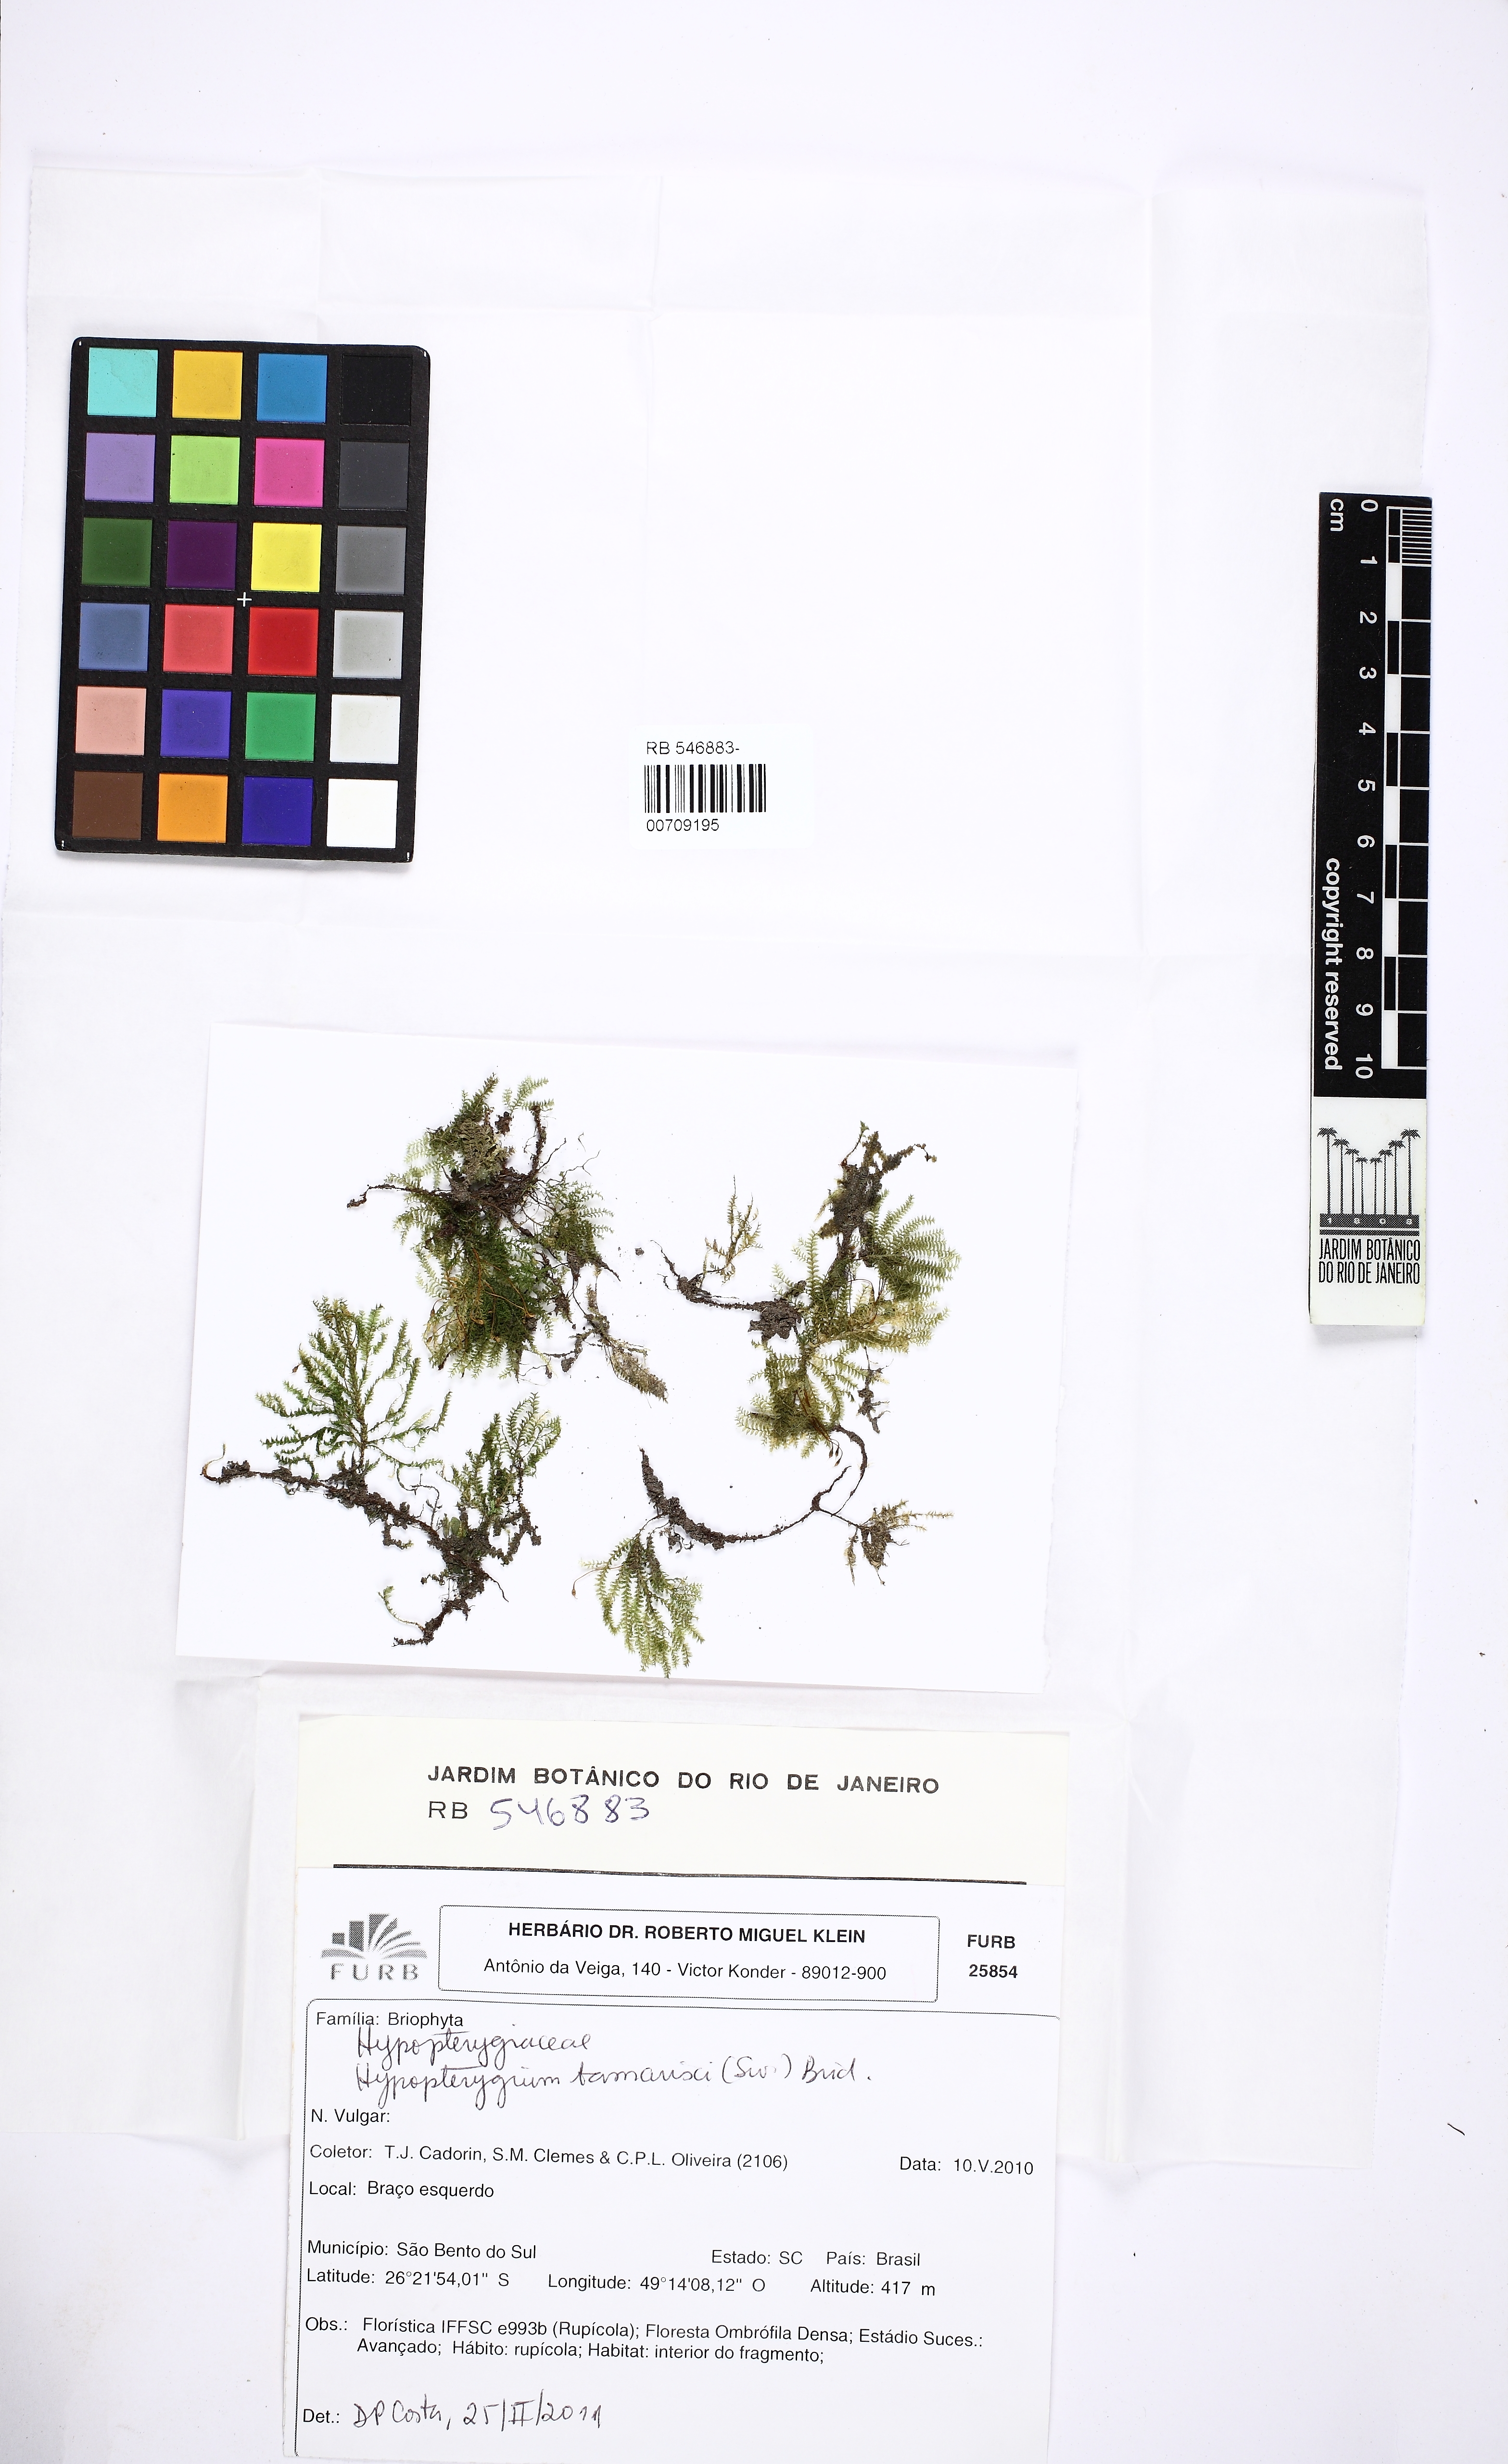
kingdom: Plantae
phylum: Bryophyta
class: Bryopsida
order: Hypopterygiales
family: Hypopterygiaceae
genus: Hypopterygium
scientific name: Hypopterygium tamarisci
